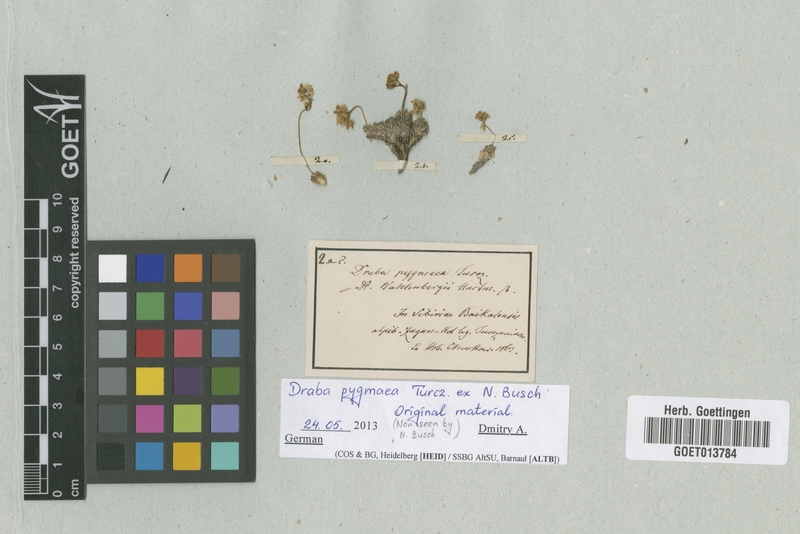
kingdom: Plantae
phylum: Tracheophyta
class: Magnoliopsida
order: Brassicales
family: Brassicaceae
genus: Draba
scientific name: Draba pygmaea
